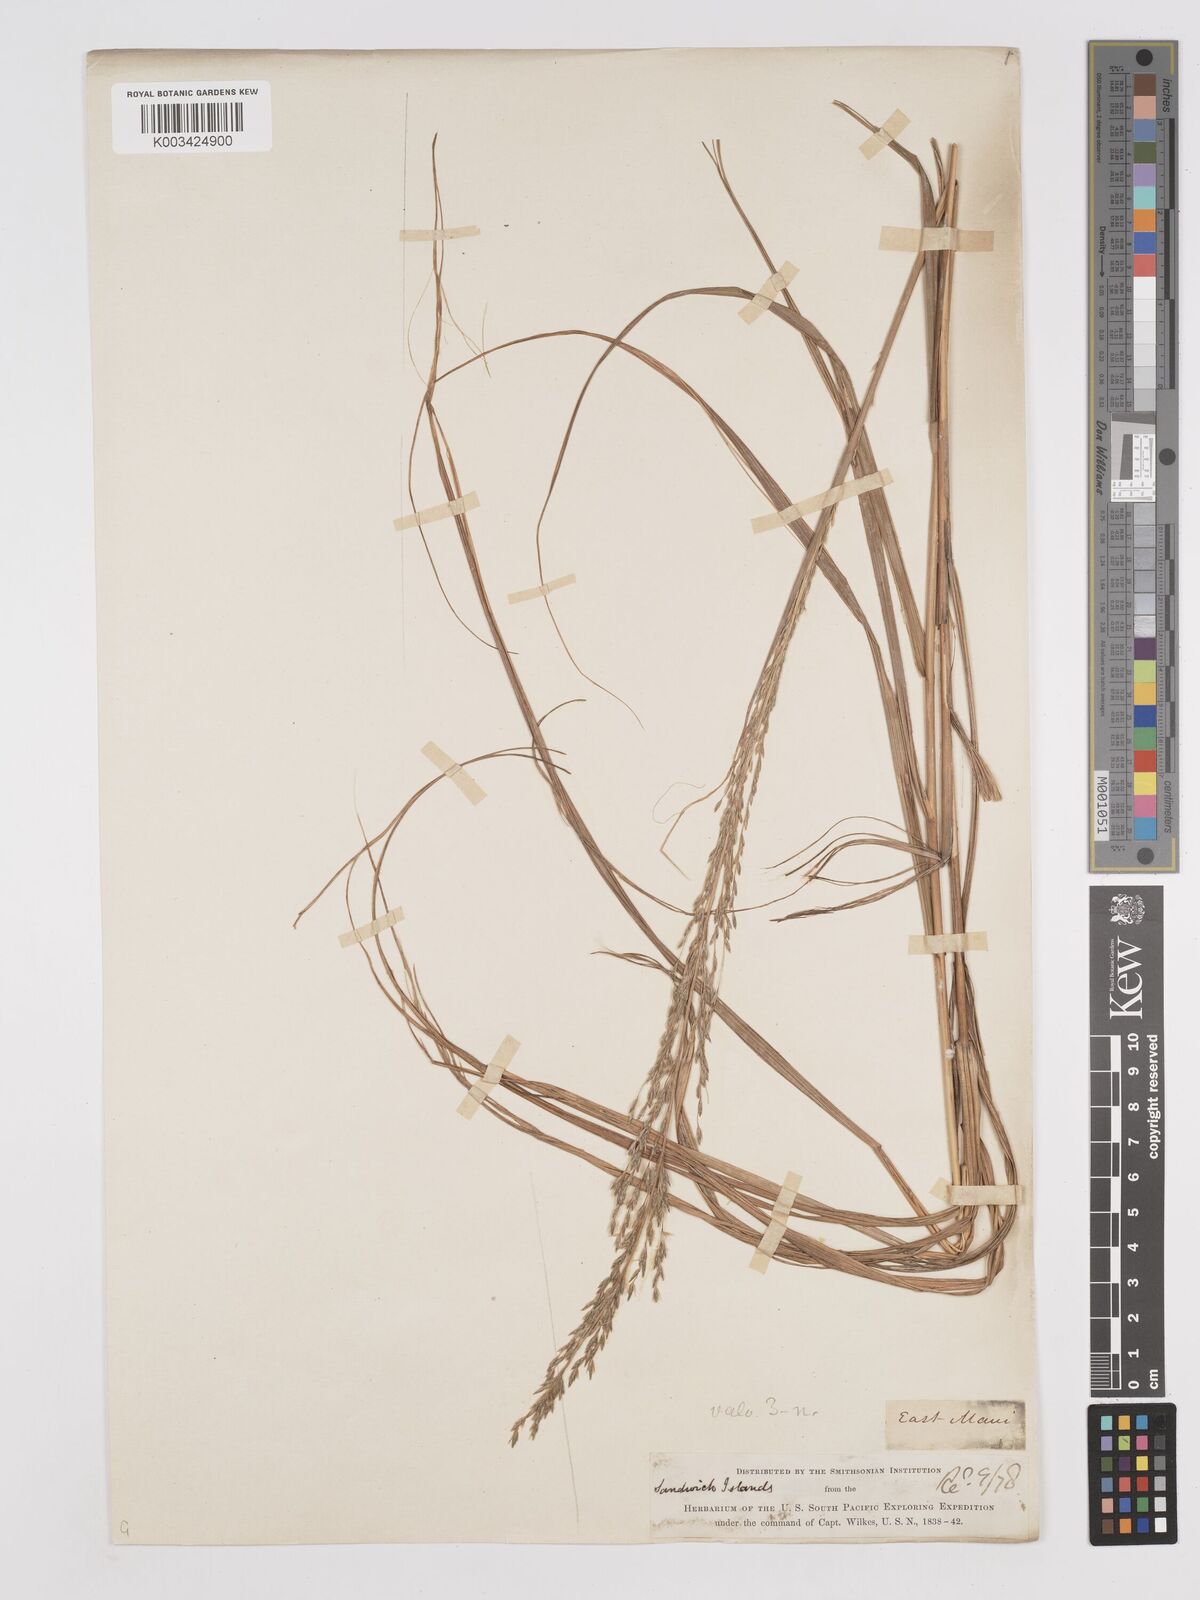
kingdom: Plantae
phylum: Tracheophyta
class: Liliopsida
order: Poales
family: Poaceae
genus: Eragrostis
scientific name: Eragrostis atropioides
